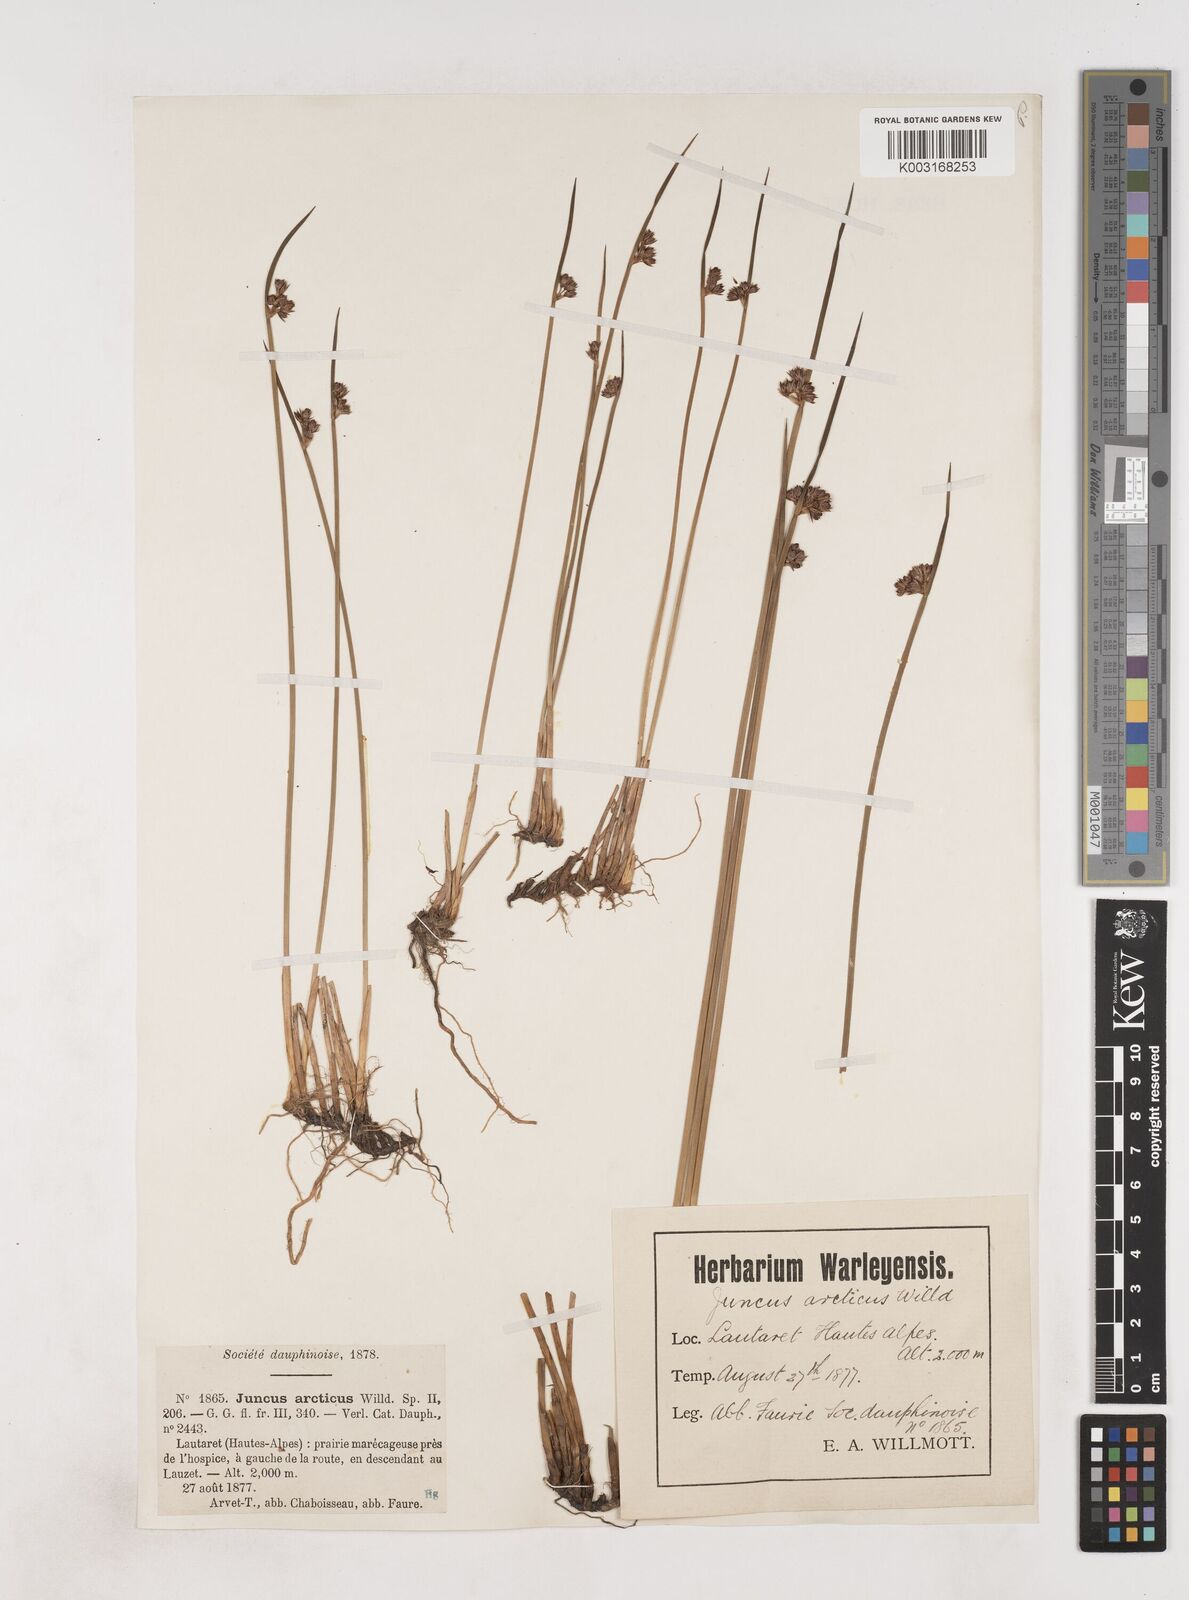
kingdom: Plantae
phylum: Tracheophyta
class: Liliopsida
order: Poales
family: Juncaceae
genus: Juncus
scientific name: Juncus arcticus
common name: Arctic rush
